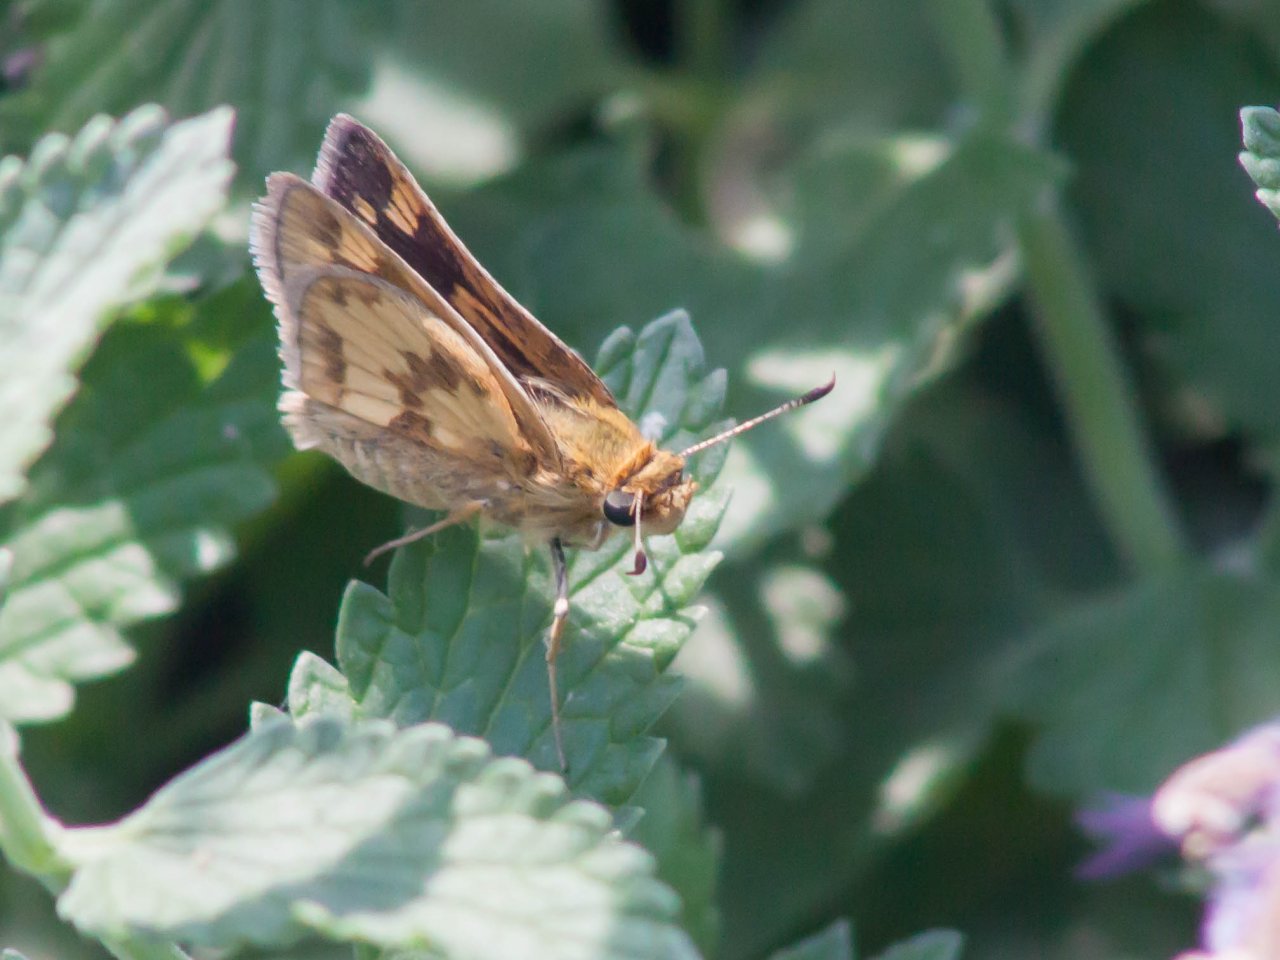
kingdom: Animalia
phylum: Arthropoda
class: Insecta
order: Lepidoptera
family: Hesperiidae
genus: Polites
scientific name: Polites coras
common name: Peck's Skipper
